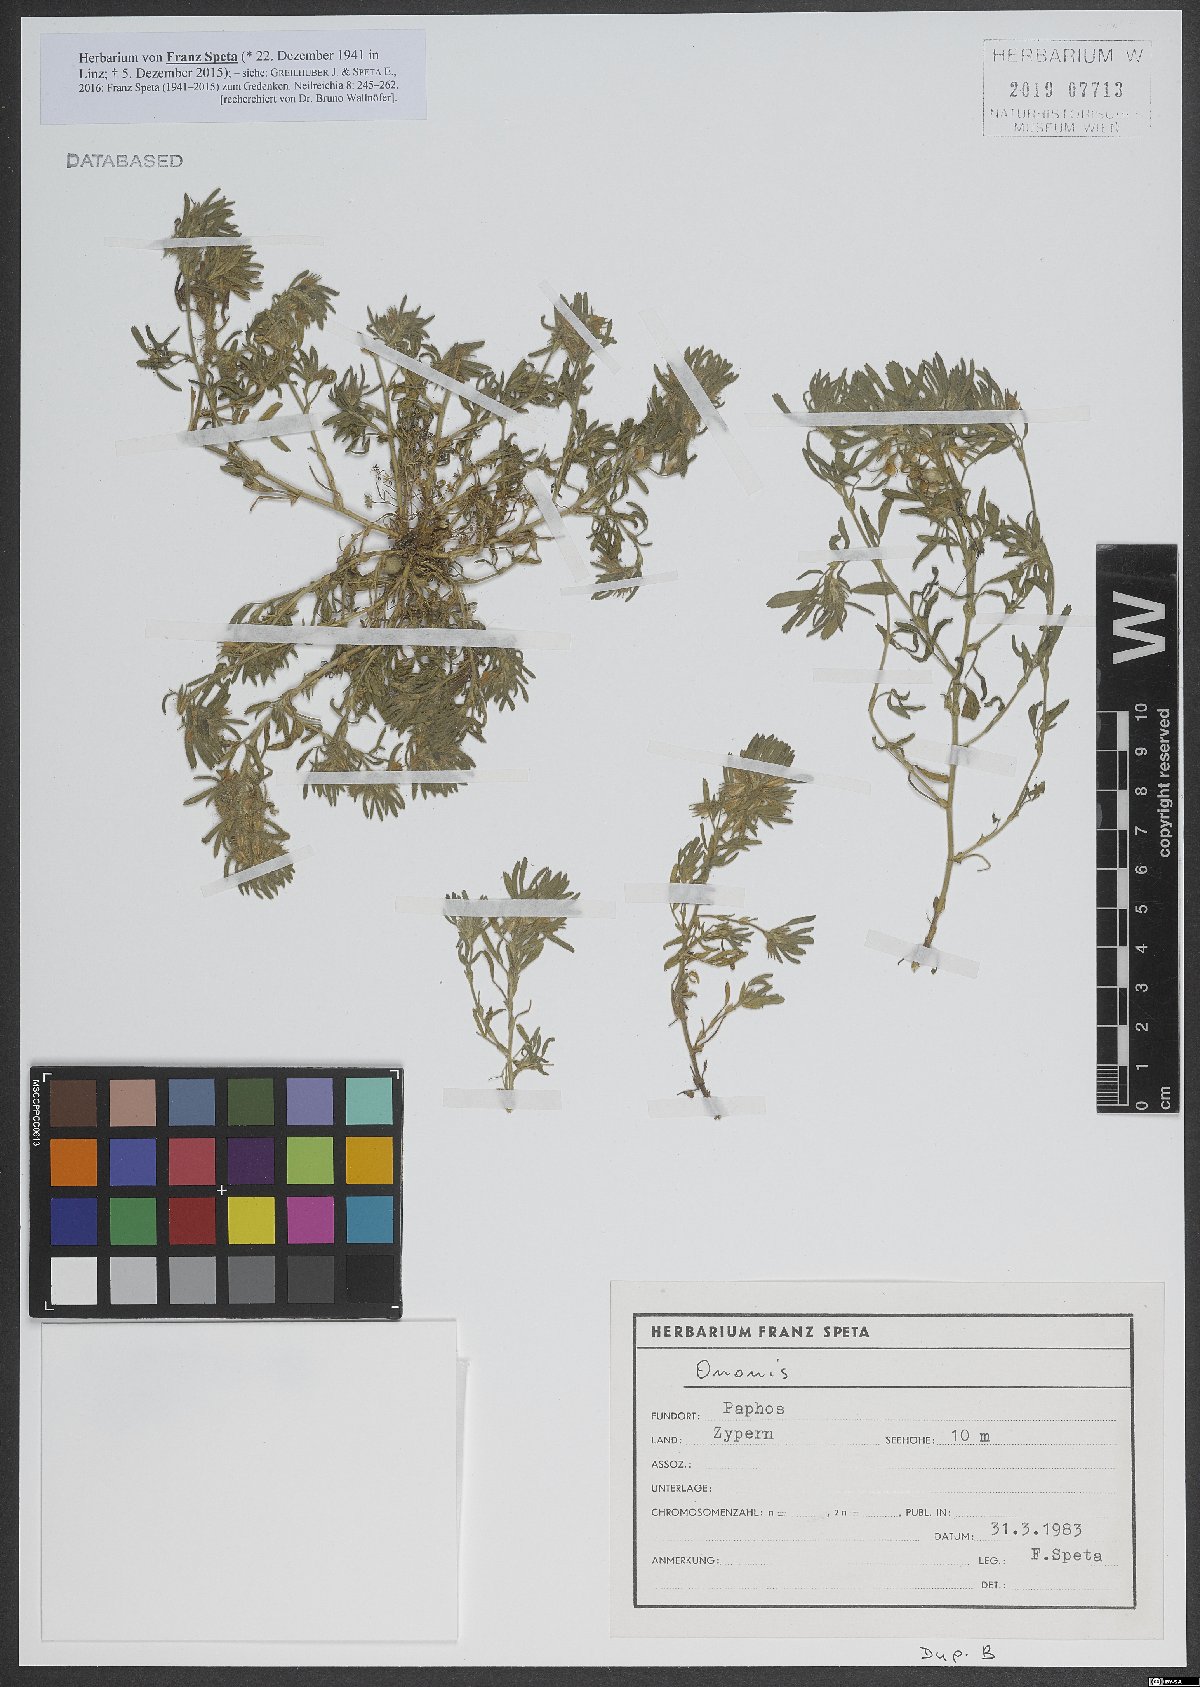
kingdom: Plantae
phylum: Tracheophyta
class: Magnoliopsida
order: Fabales
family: Fabaceae
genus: Ononis
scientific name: Ononis
